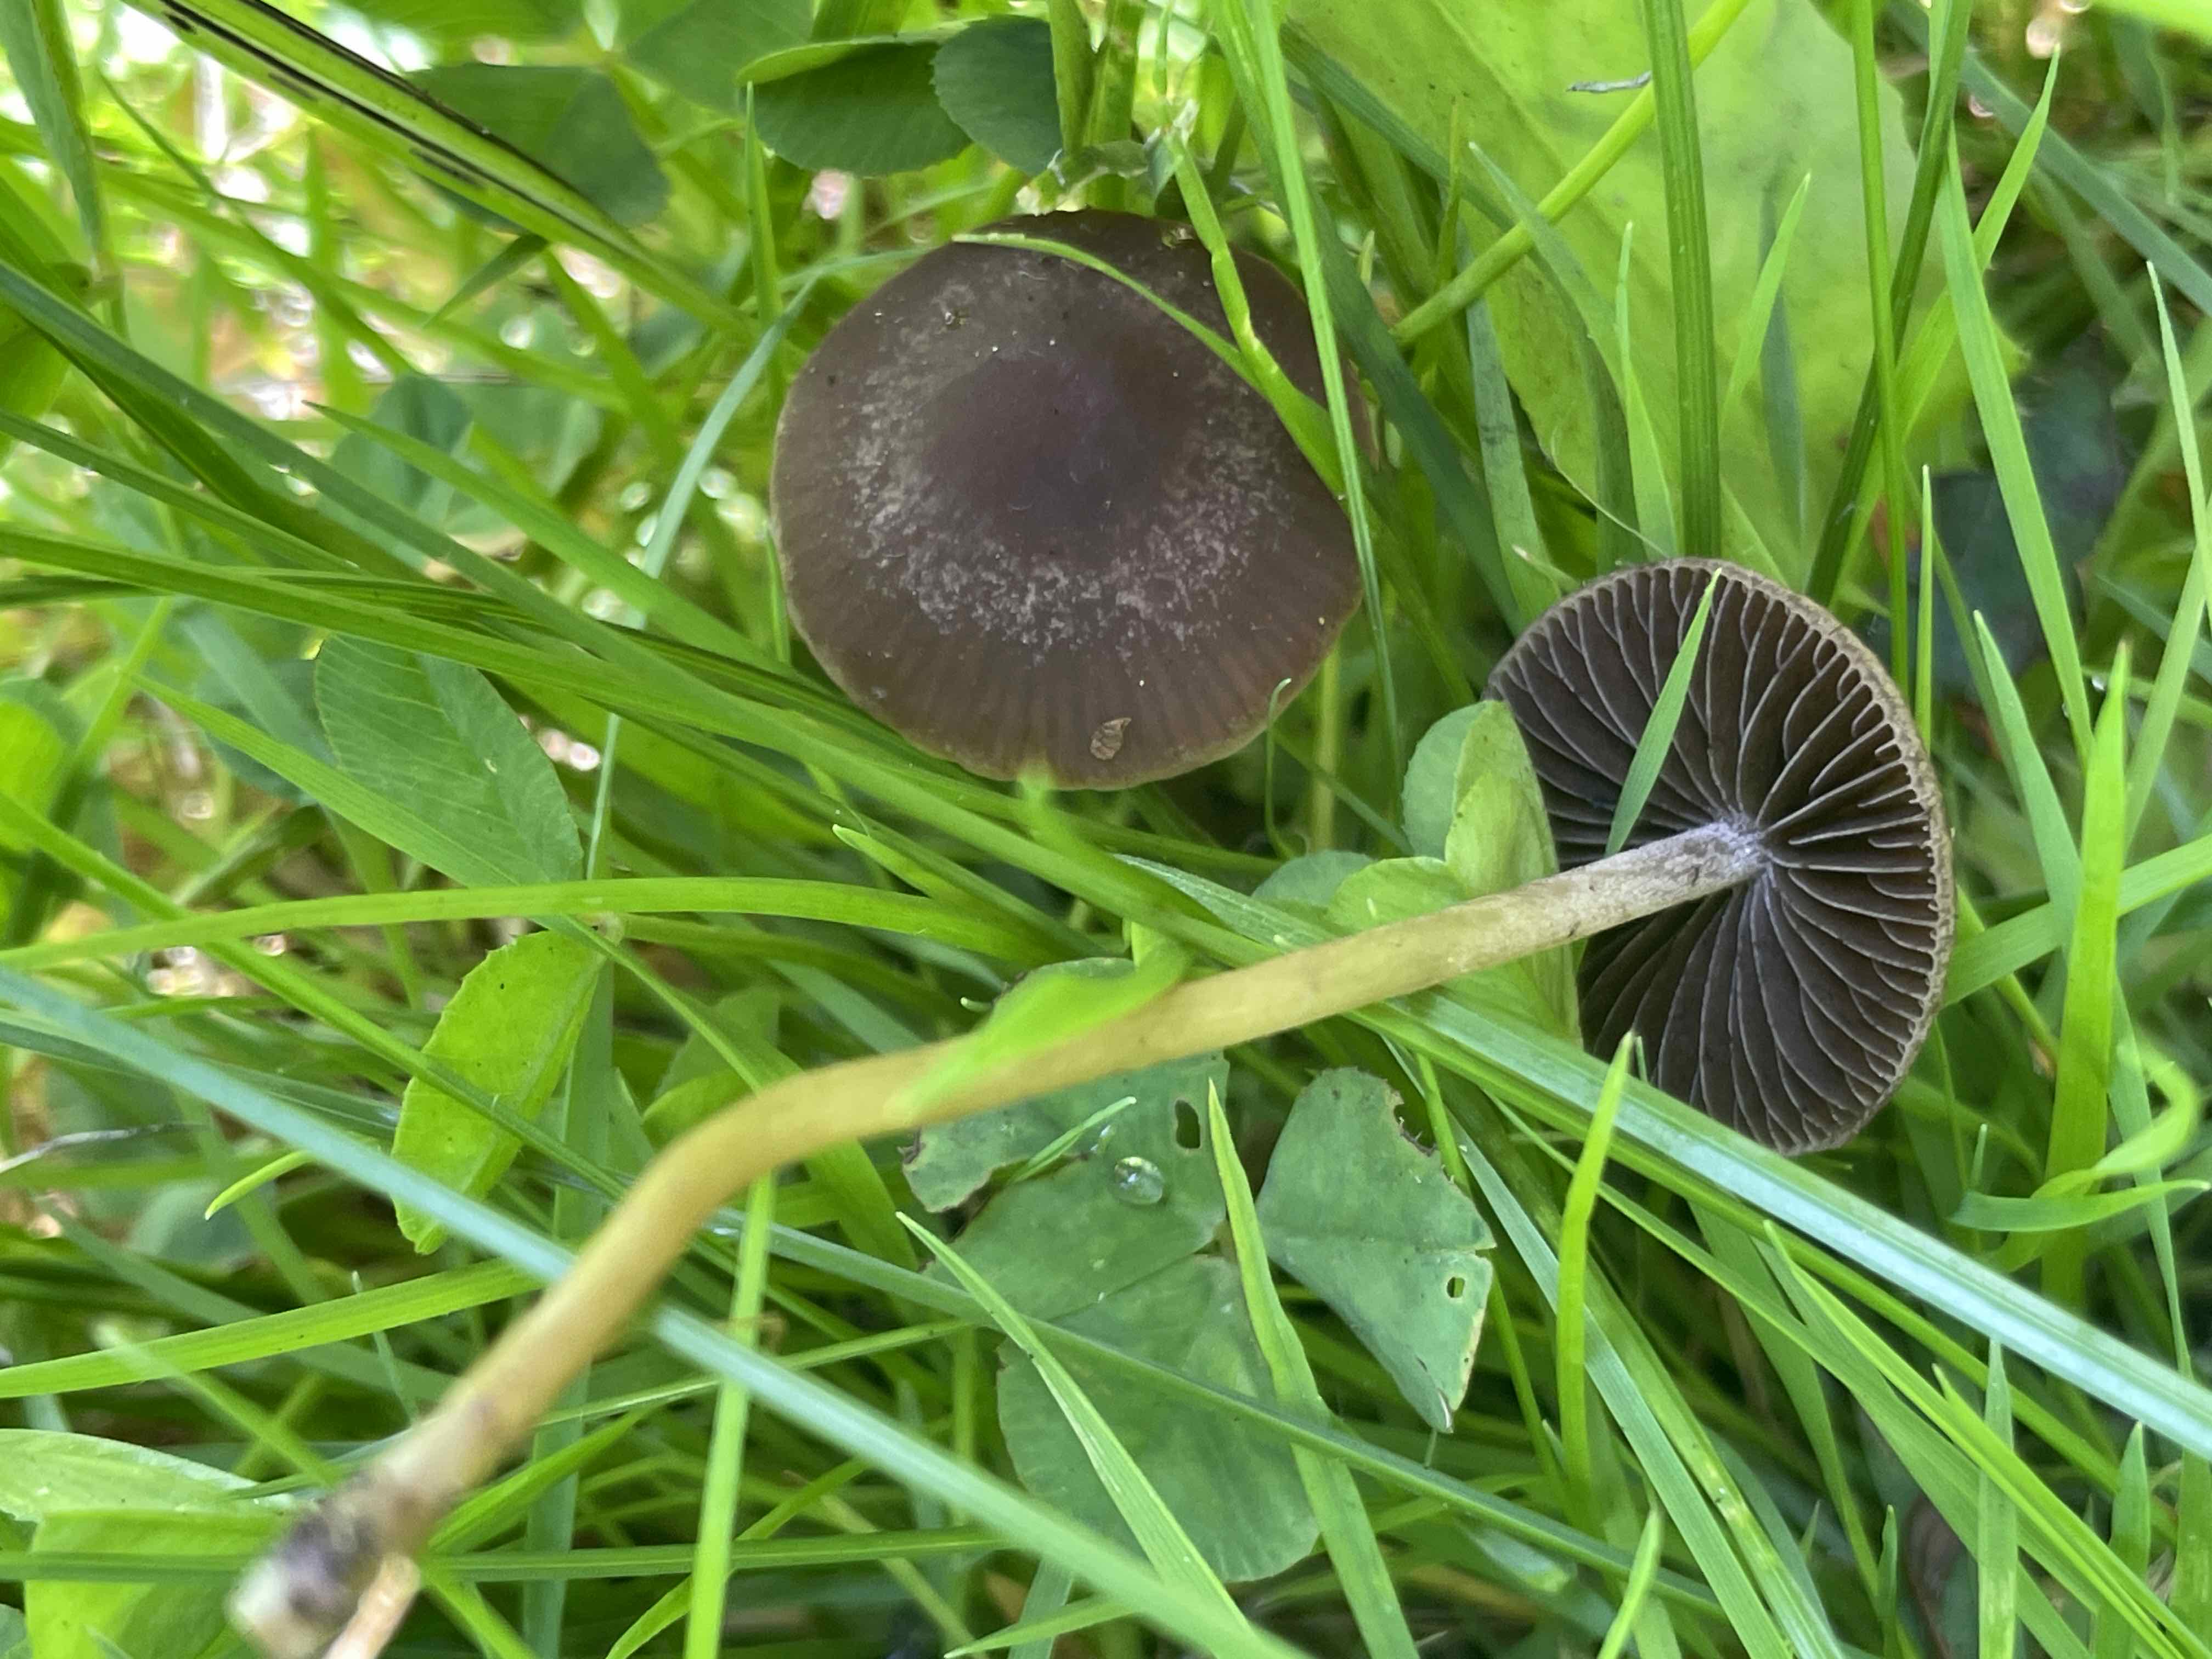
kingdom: Fungi
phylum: Basidiomycota
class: Agaricomycetes
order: Agaricales
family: Bolbitiaceae
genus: Panaeolina
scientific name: Panaeolina foenisecii
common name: høslætsvamp
